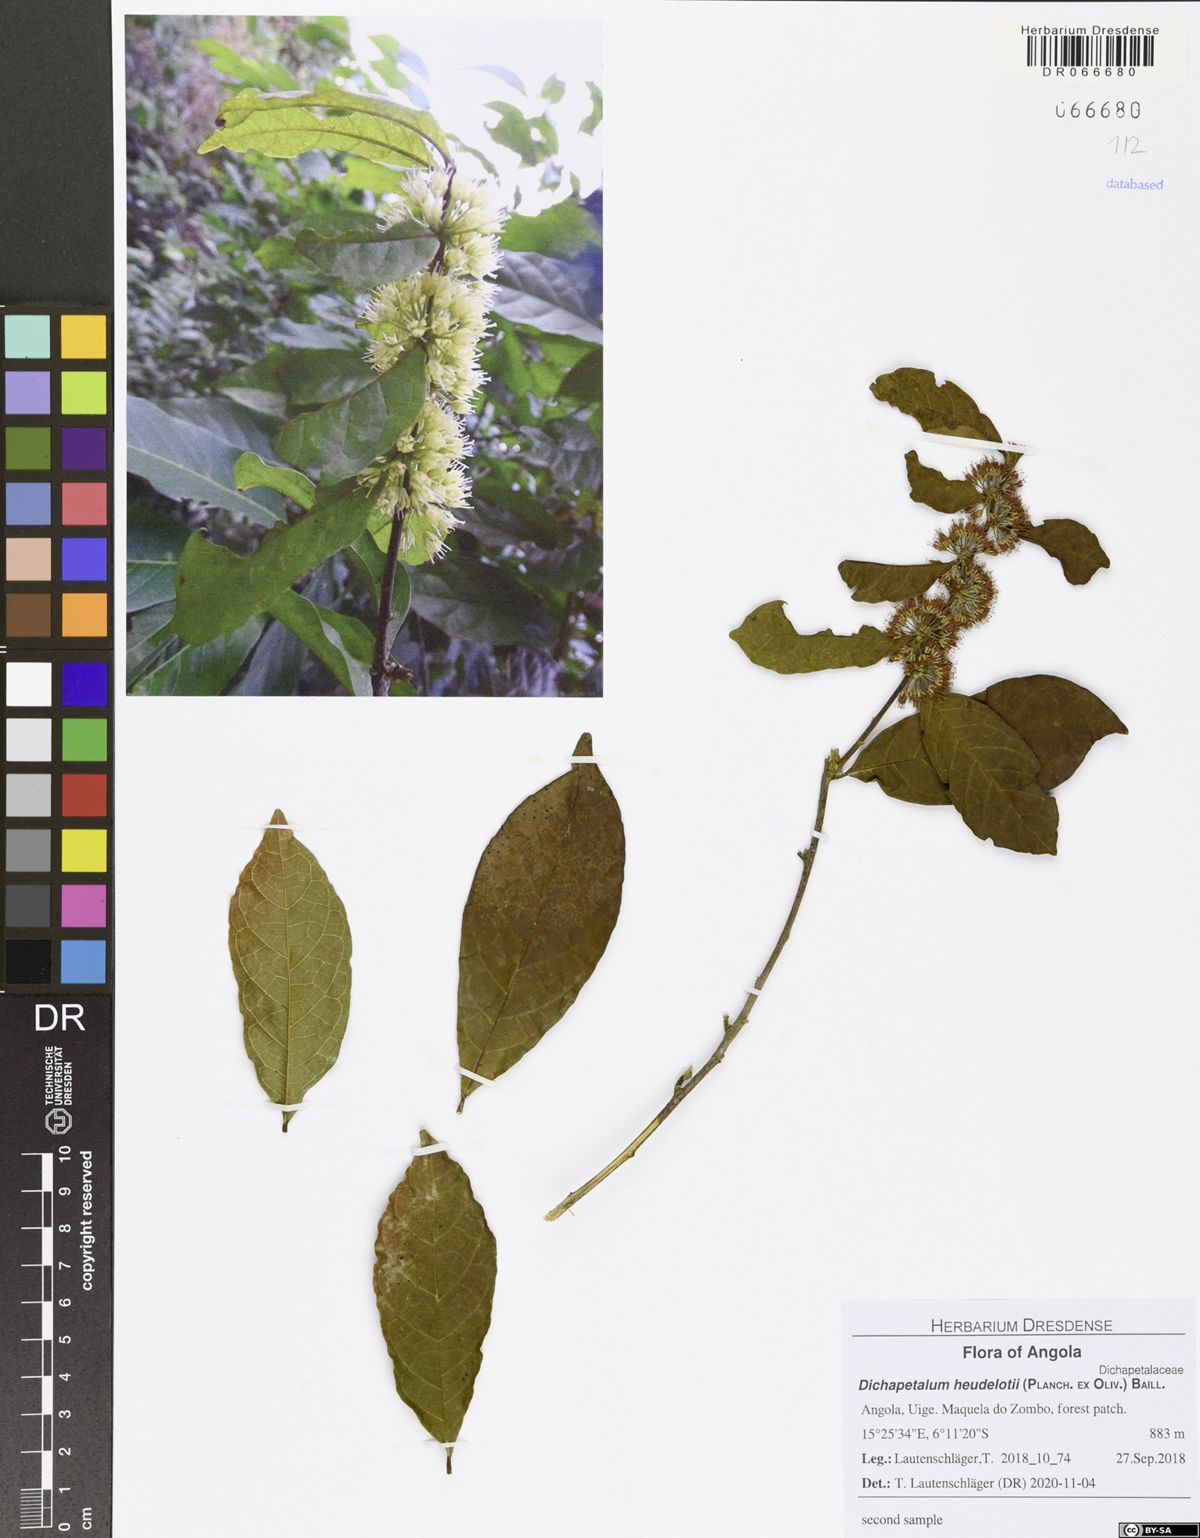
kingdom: Plantae
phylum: Tracheophyta
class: Magnoliopsida
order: Malpighiales
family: Dichapetalaceae
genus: Dichapetalum
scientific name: Dichapetalum heudelotii
